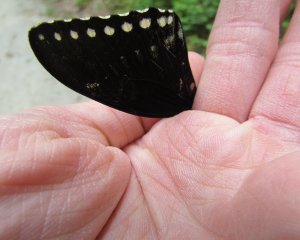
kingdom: Animalia
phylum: Arthropoda
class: Insecta
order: Lepidoptera
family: Papilionidae
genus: Pterourus
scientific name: Pterourus troilus
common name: Spicebush Swallowtail
